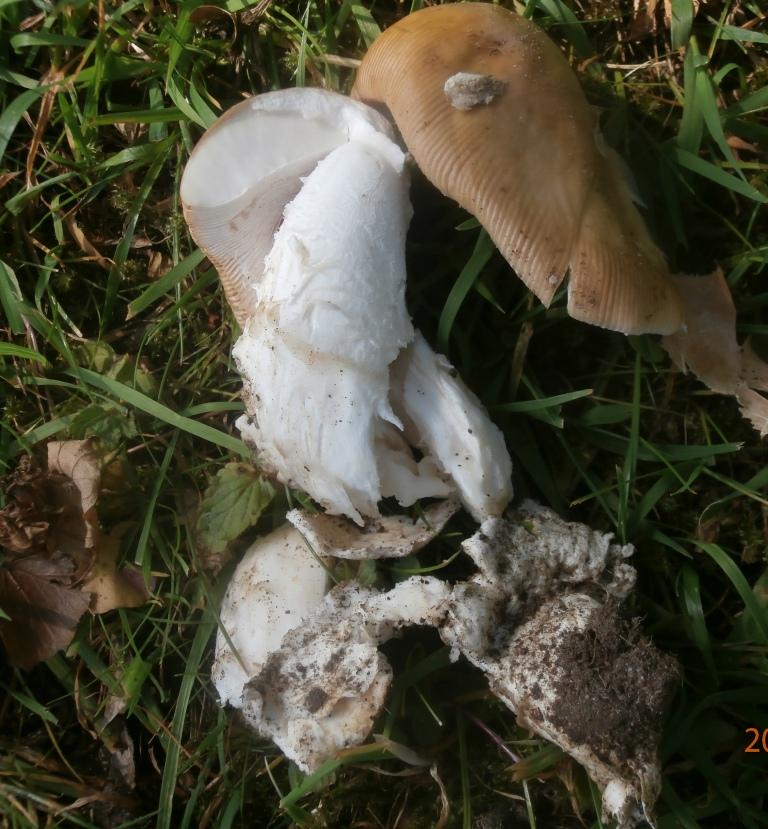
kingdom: Fungi
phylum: Basidiomycota
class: Agaricomycetes
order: Agaricales
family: Amanitaceae
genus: Amanita
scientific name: Amanita lividopallescens
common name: afblegende kam-fluesvamp
